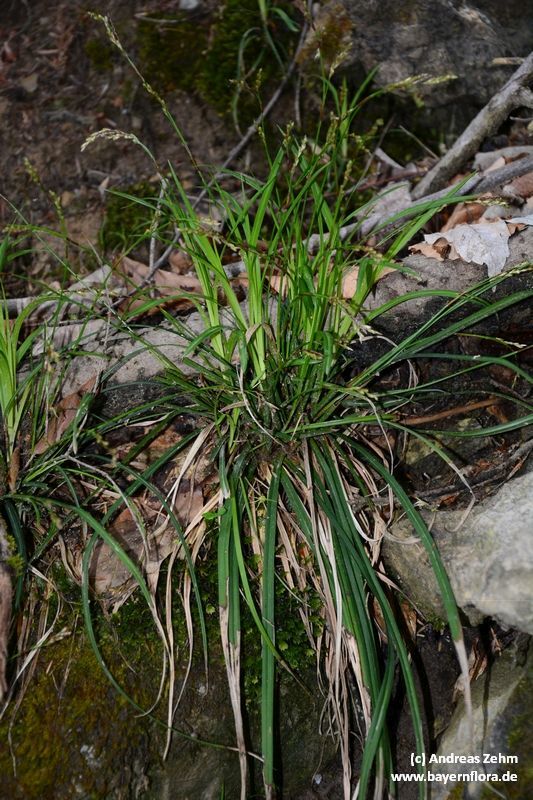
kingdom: Plantae
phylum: Tracheophyta
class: Liliopsida
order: Poales
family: Cyperaceae
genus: Carex
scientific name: Carex digitata
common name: Fingered sedge
